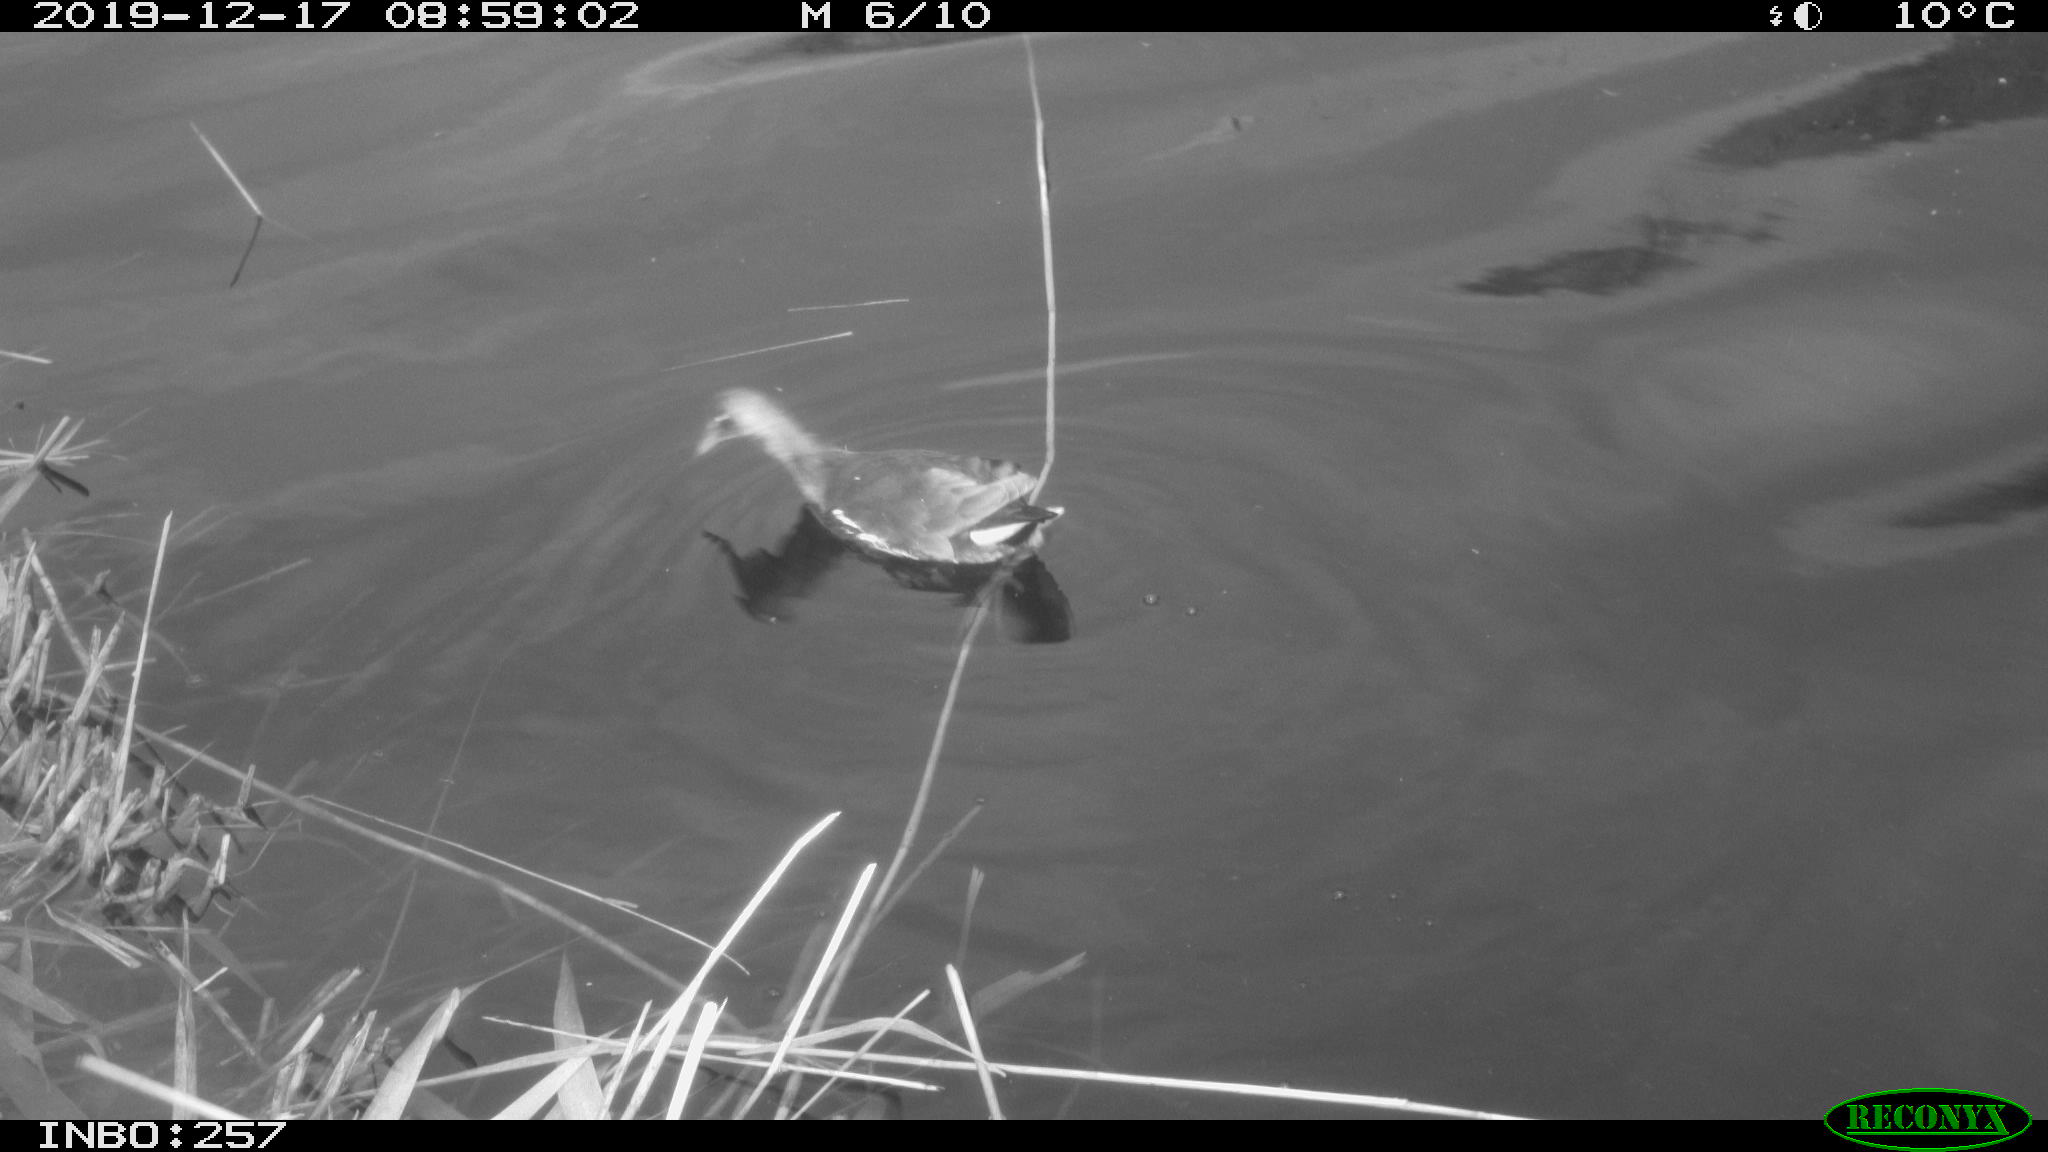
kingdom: Animalia
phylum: Chordata
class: Aves
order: Gruiformes
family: Rallidae
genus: Gallinula
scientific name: Gallinula chloropus
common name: Common moorhen
